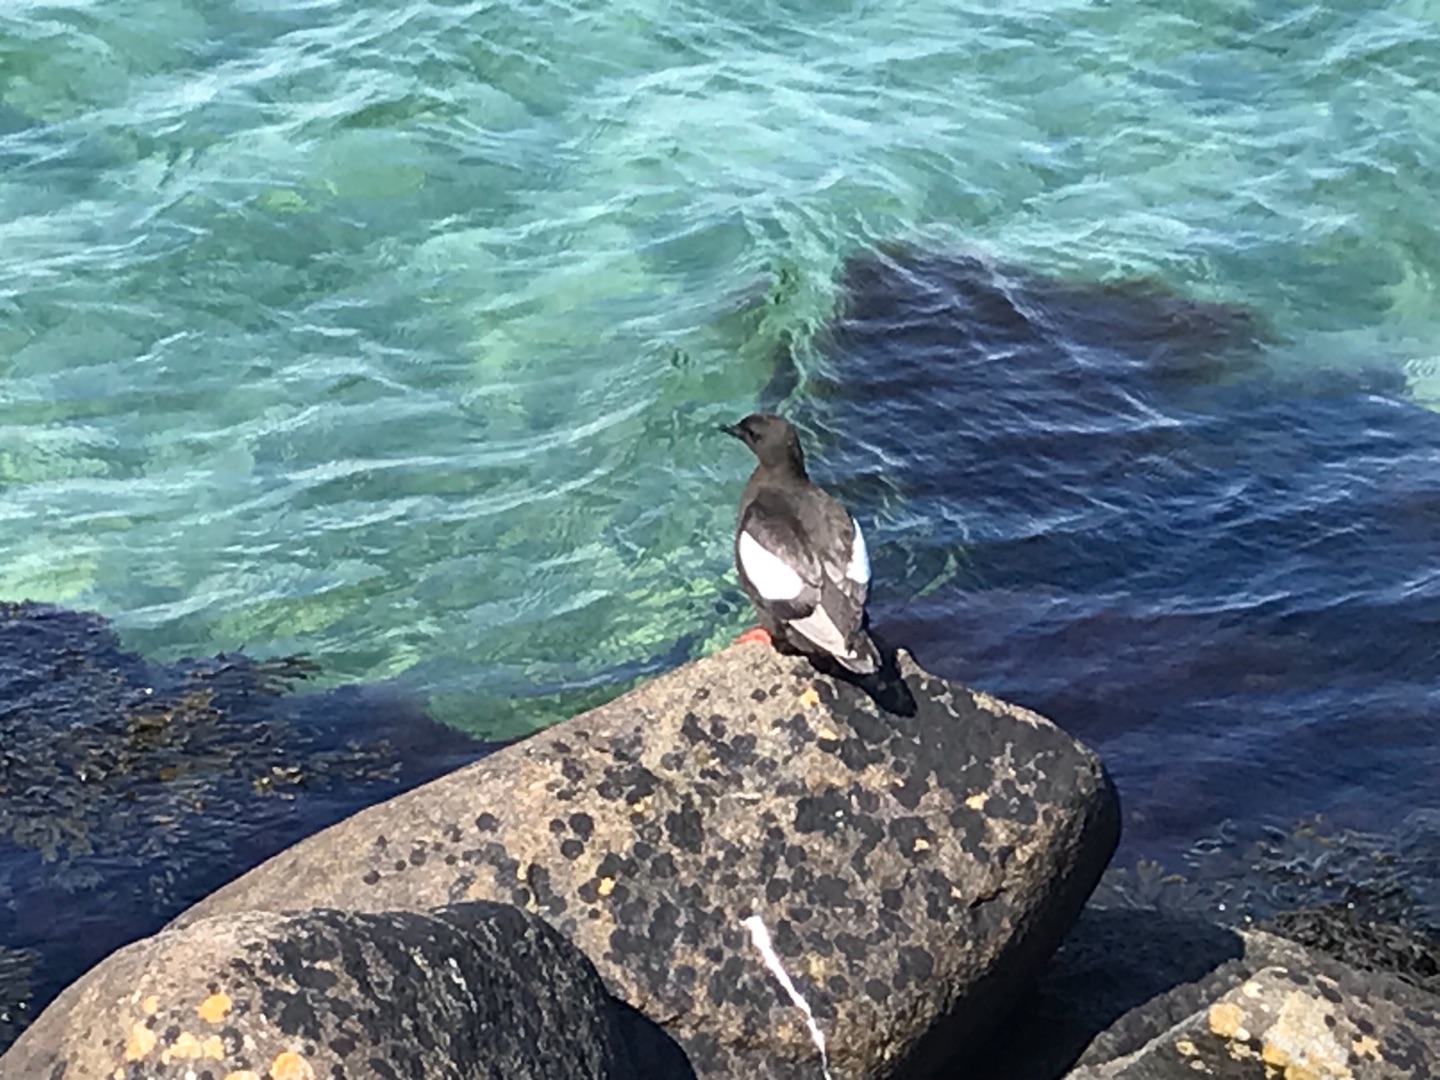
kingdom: Animalia
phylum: Chordata
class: Aves
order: Charadriiformes
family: Alcidae
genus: Cepphus
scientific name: Cepphus grylle
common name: Tejst
